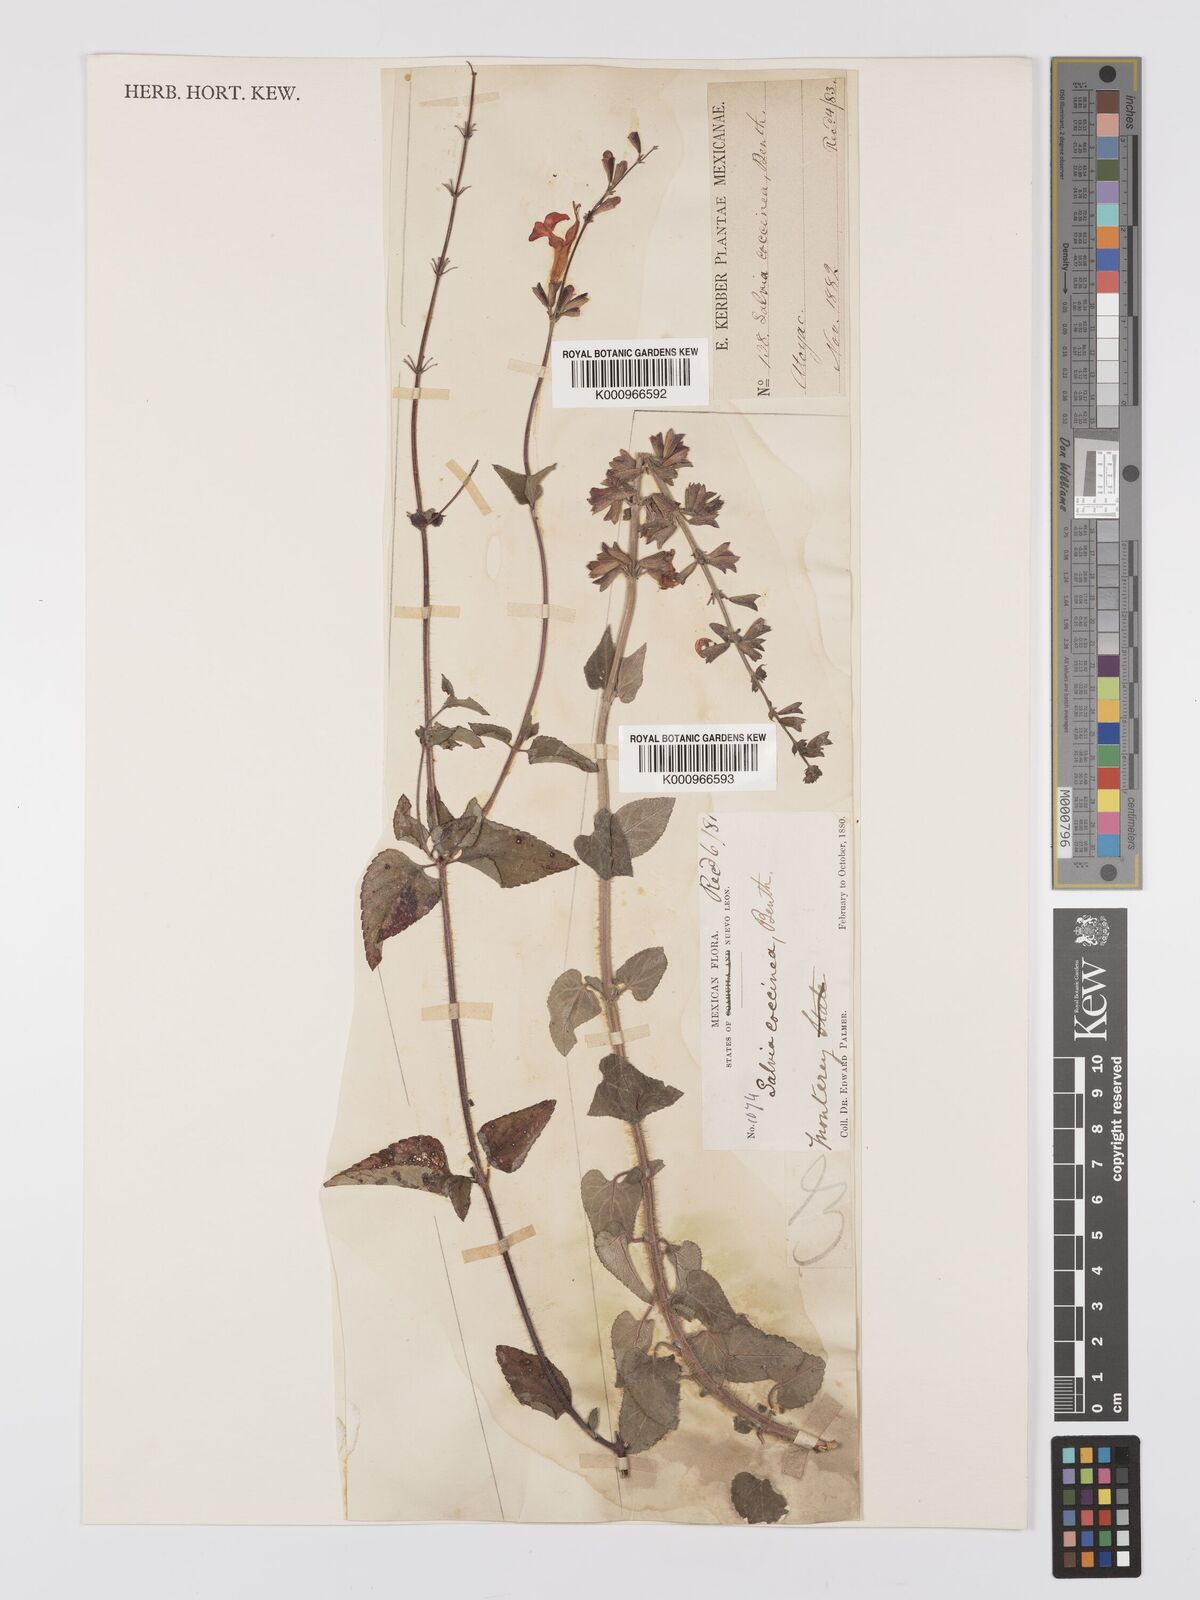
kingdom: Plantae
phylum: Tracheophyta
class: Magnoliopsida
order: Lamiales
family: Lamiaceae
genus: Salvia
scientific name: Salvia
